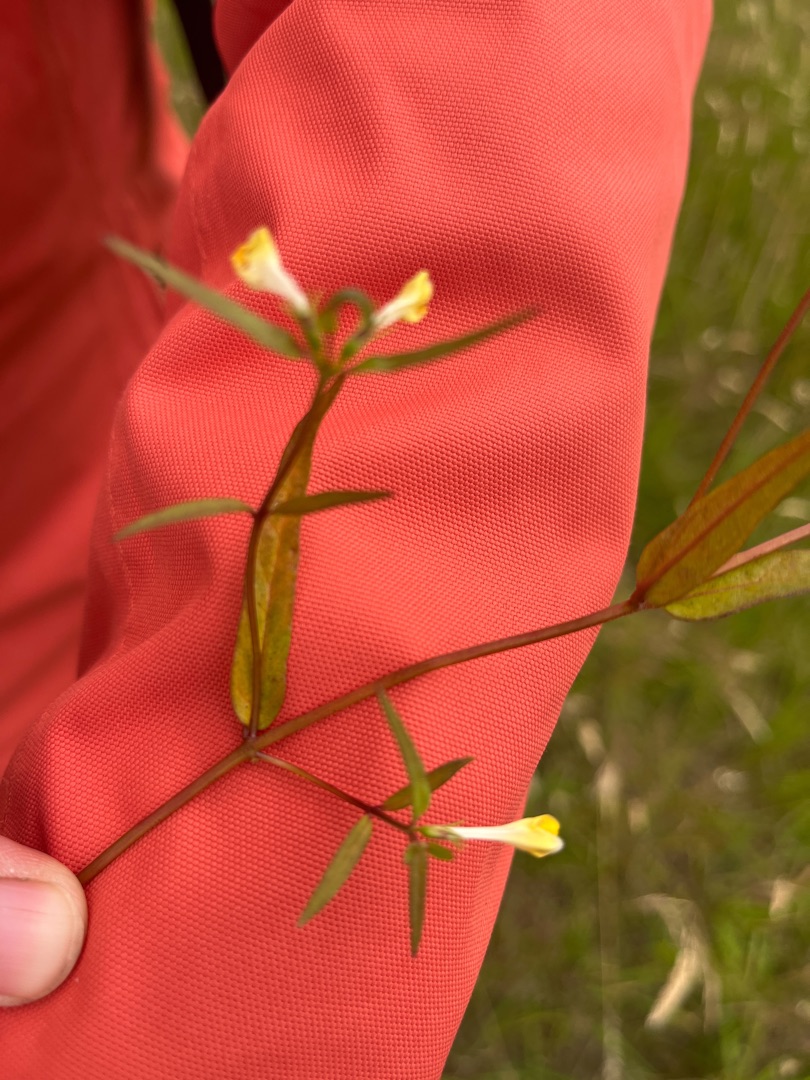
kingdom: Plantae
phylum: Tracheophyta
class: Magnoliopsida
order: Lamiales
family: Orobanchaceae
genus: Melampyrum
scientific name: Melampyrum pratense
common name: Almindelig kohvede
